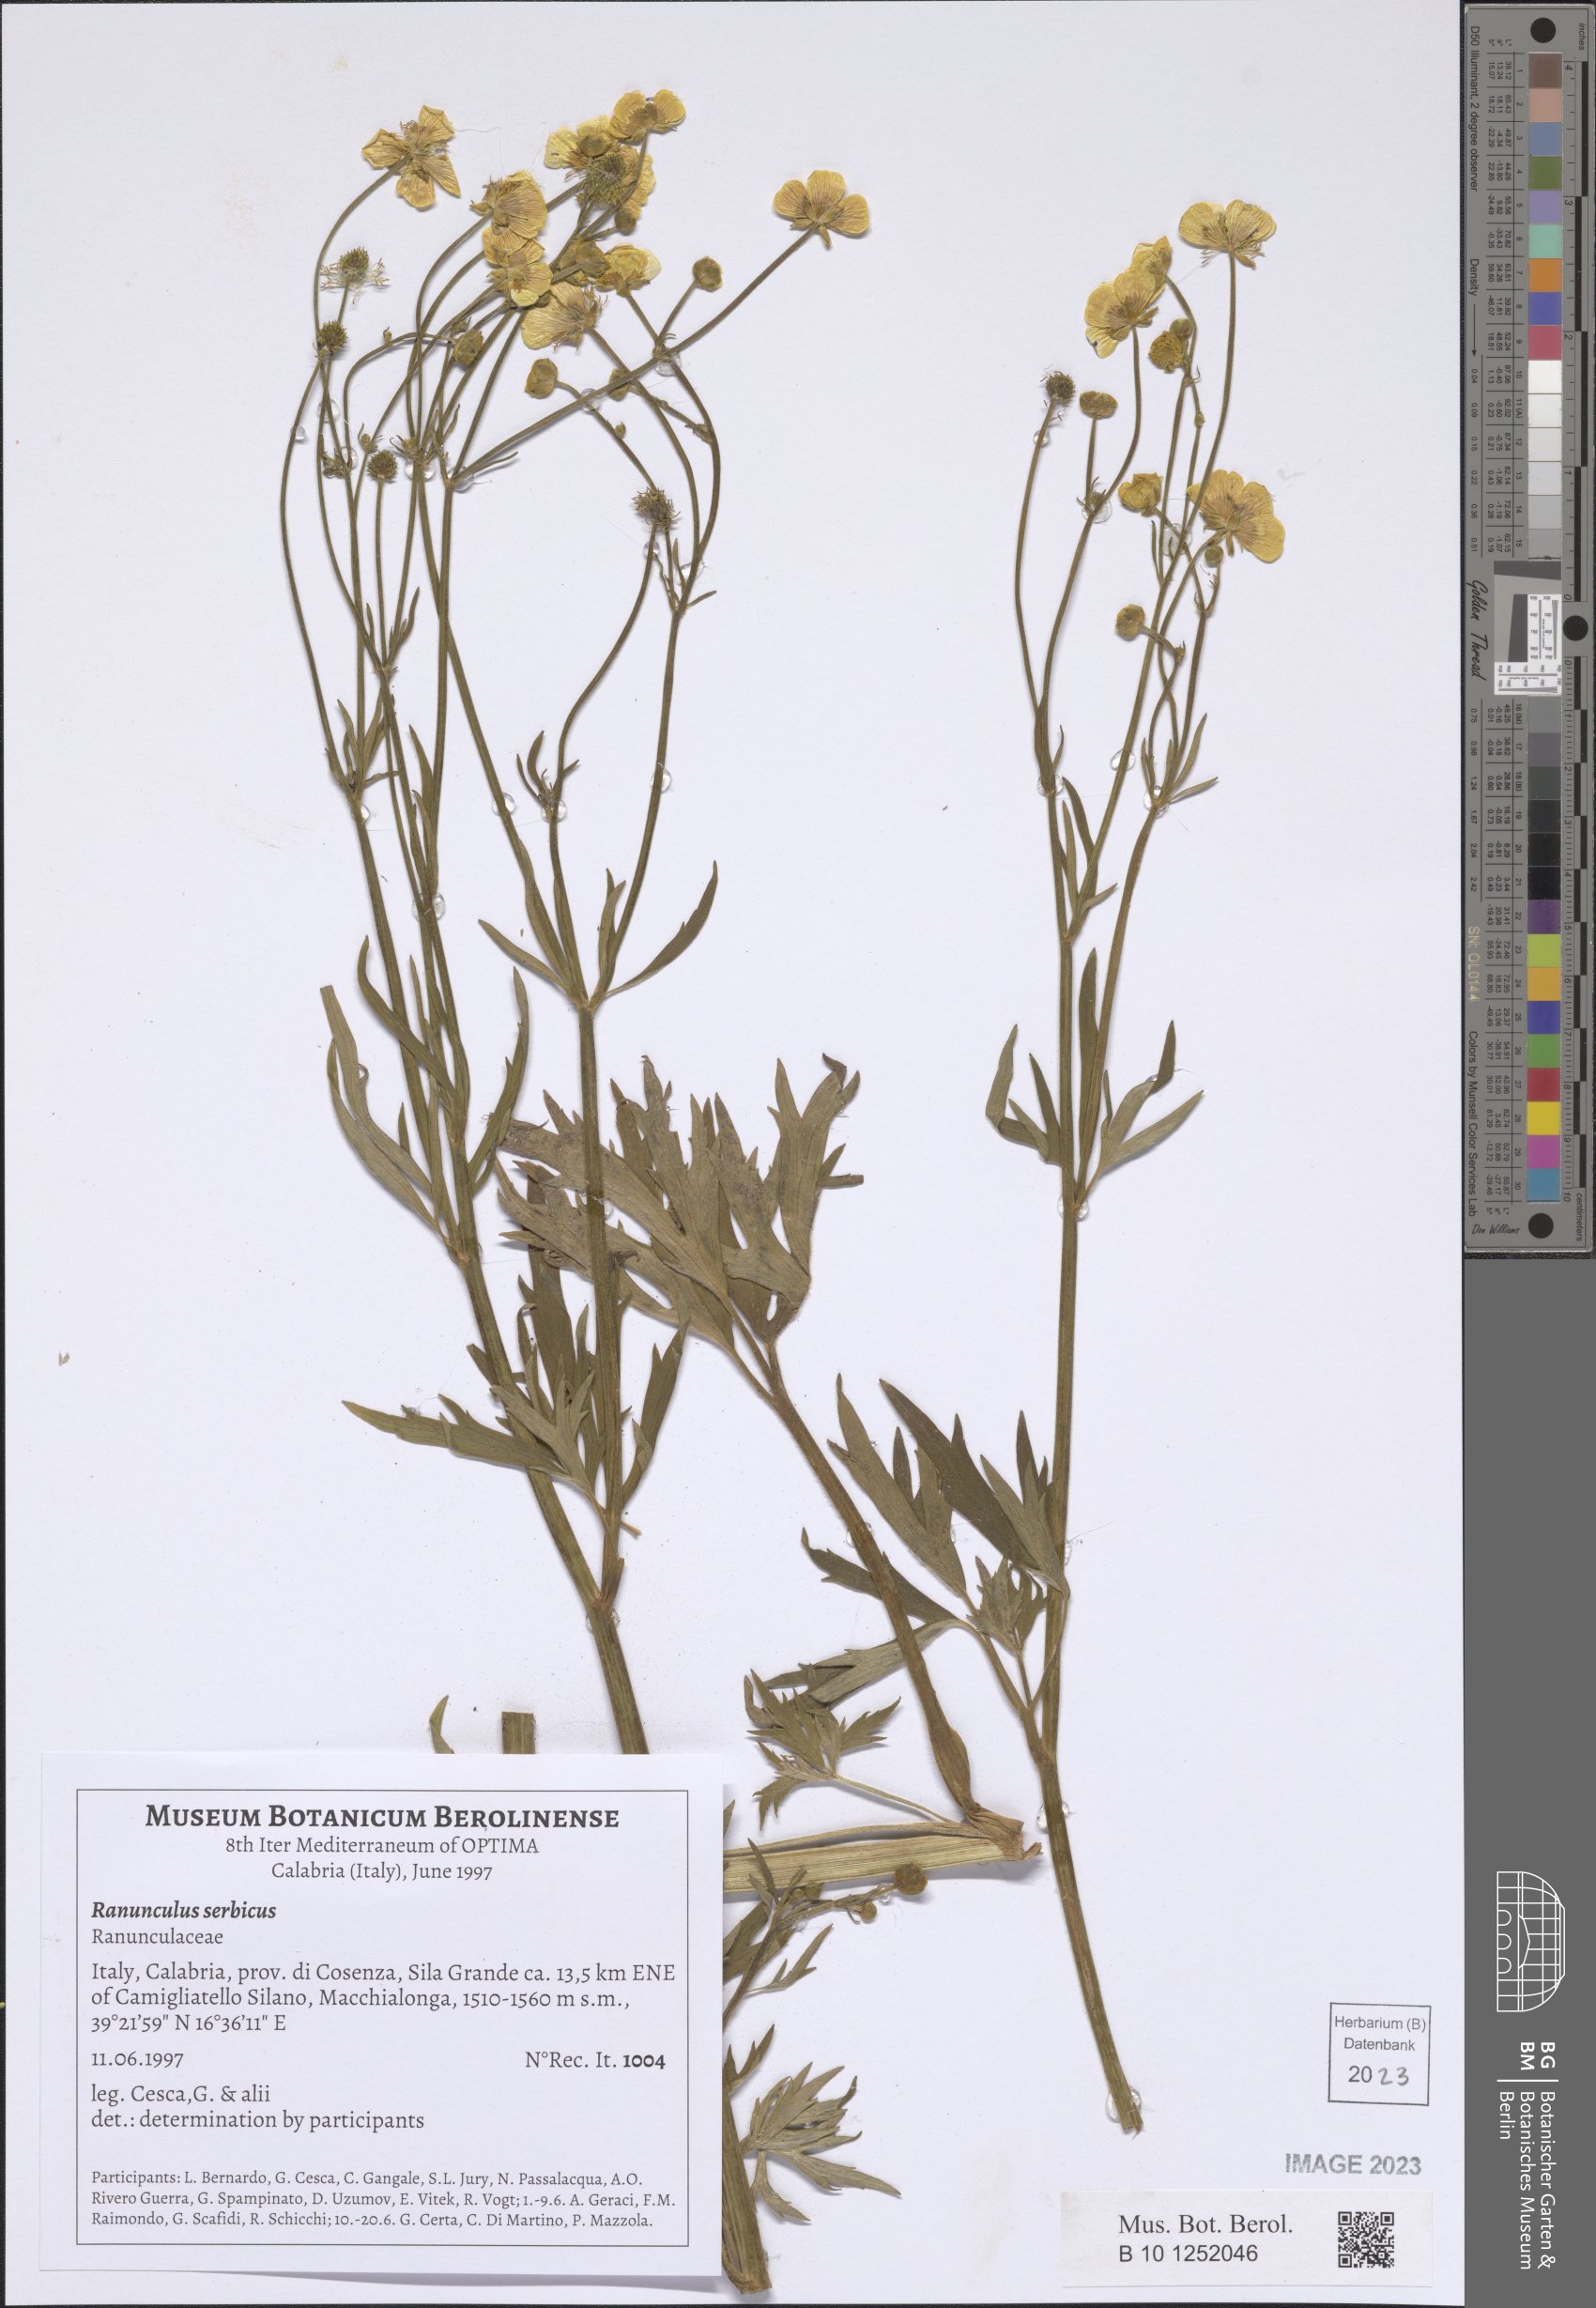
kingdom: Plantae
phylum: Tracheophyta
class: Magnoliopsida
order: Ranunculales
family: Ranunculaceae
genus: Ranunculus
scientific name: Ranunculus serbicus
